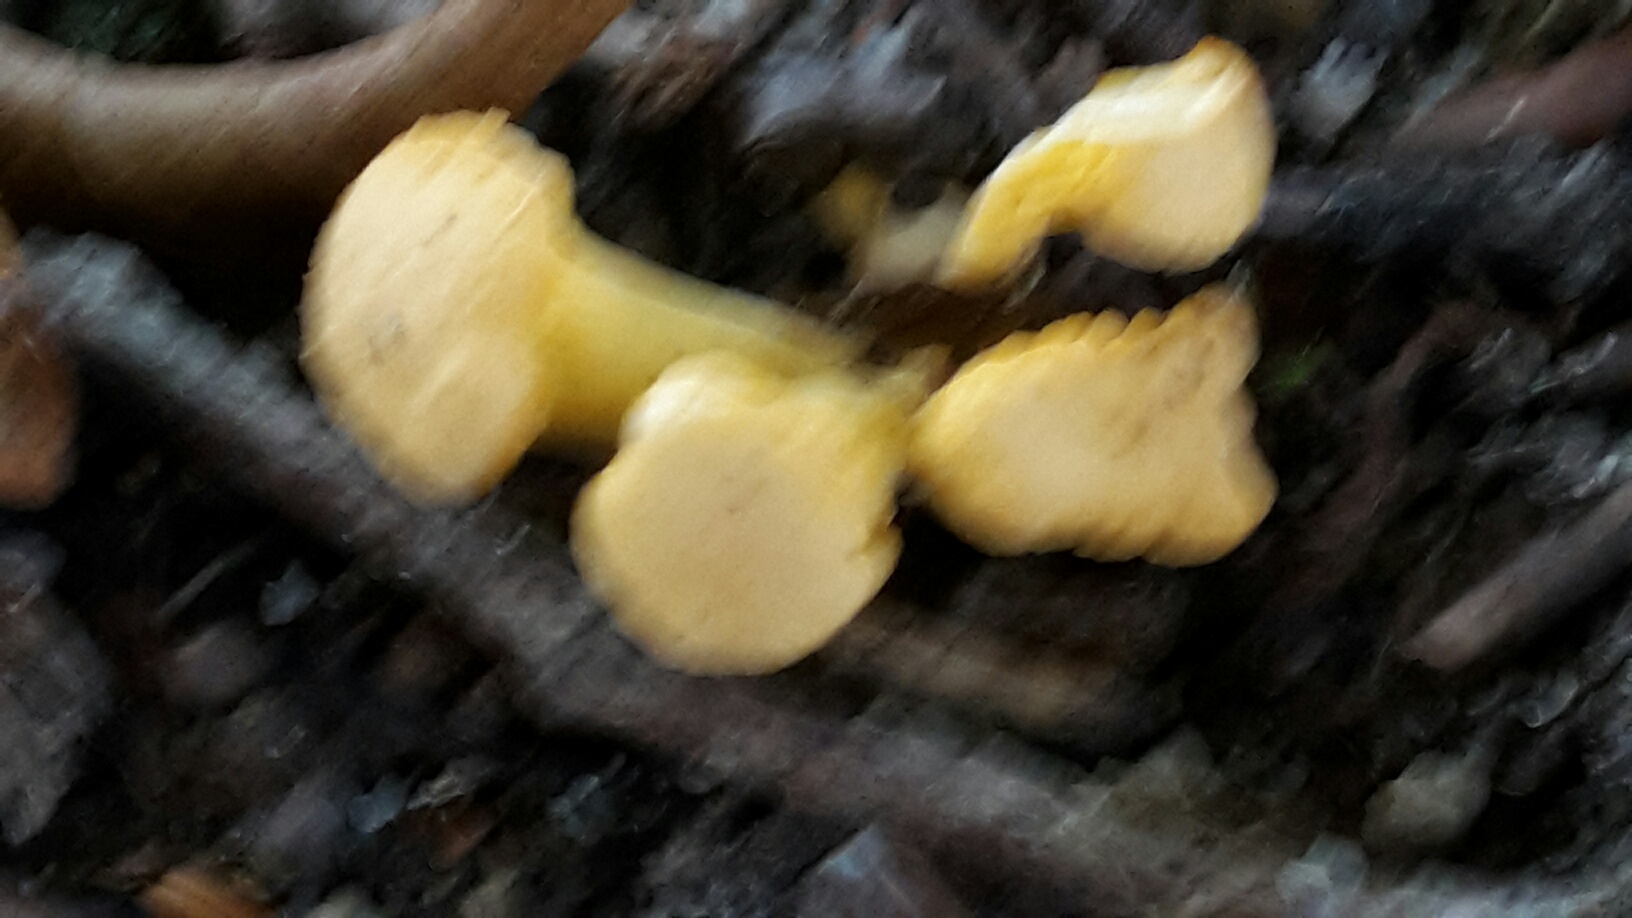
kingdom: Fungi
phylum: Basidiomycota
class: Agaricomycetes
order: Cantharellales
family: Hydnaceae
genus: Cantharellus
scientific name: Cantharellus cibarius
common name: almindelig kantarel
